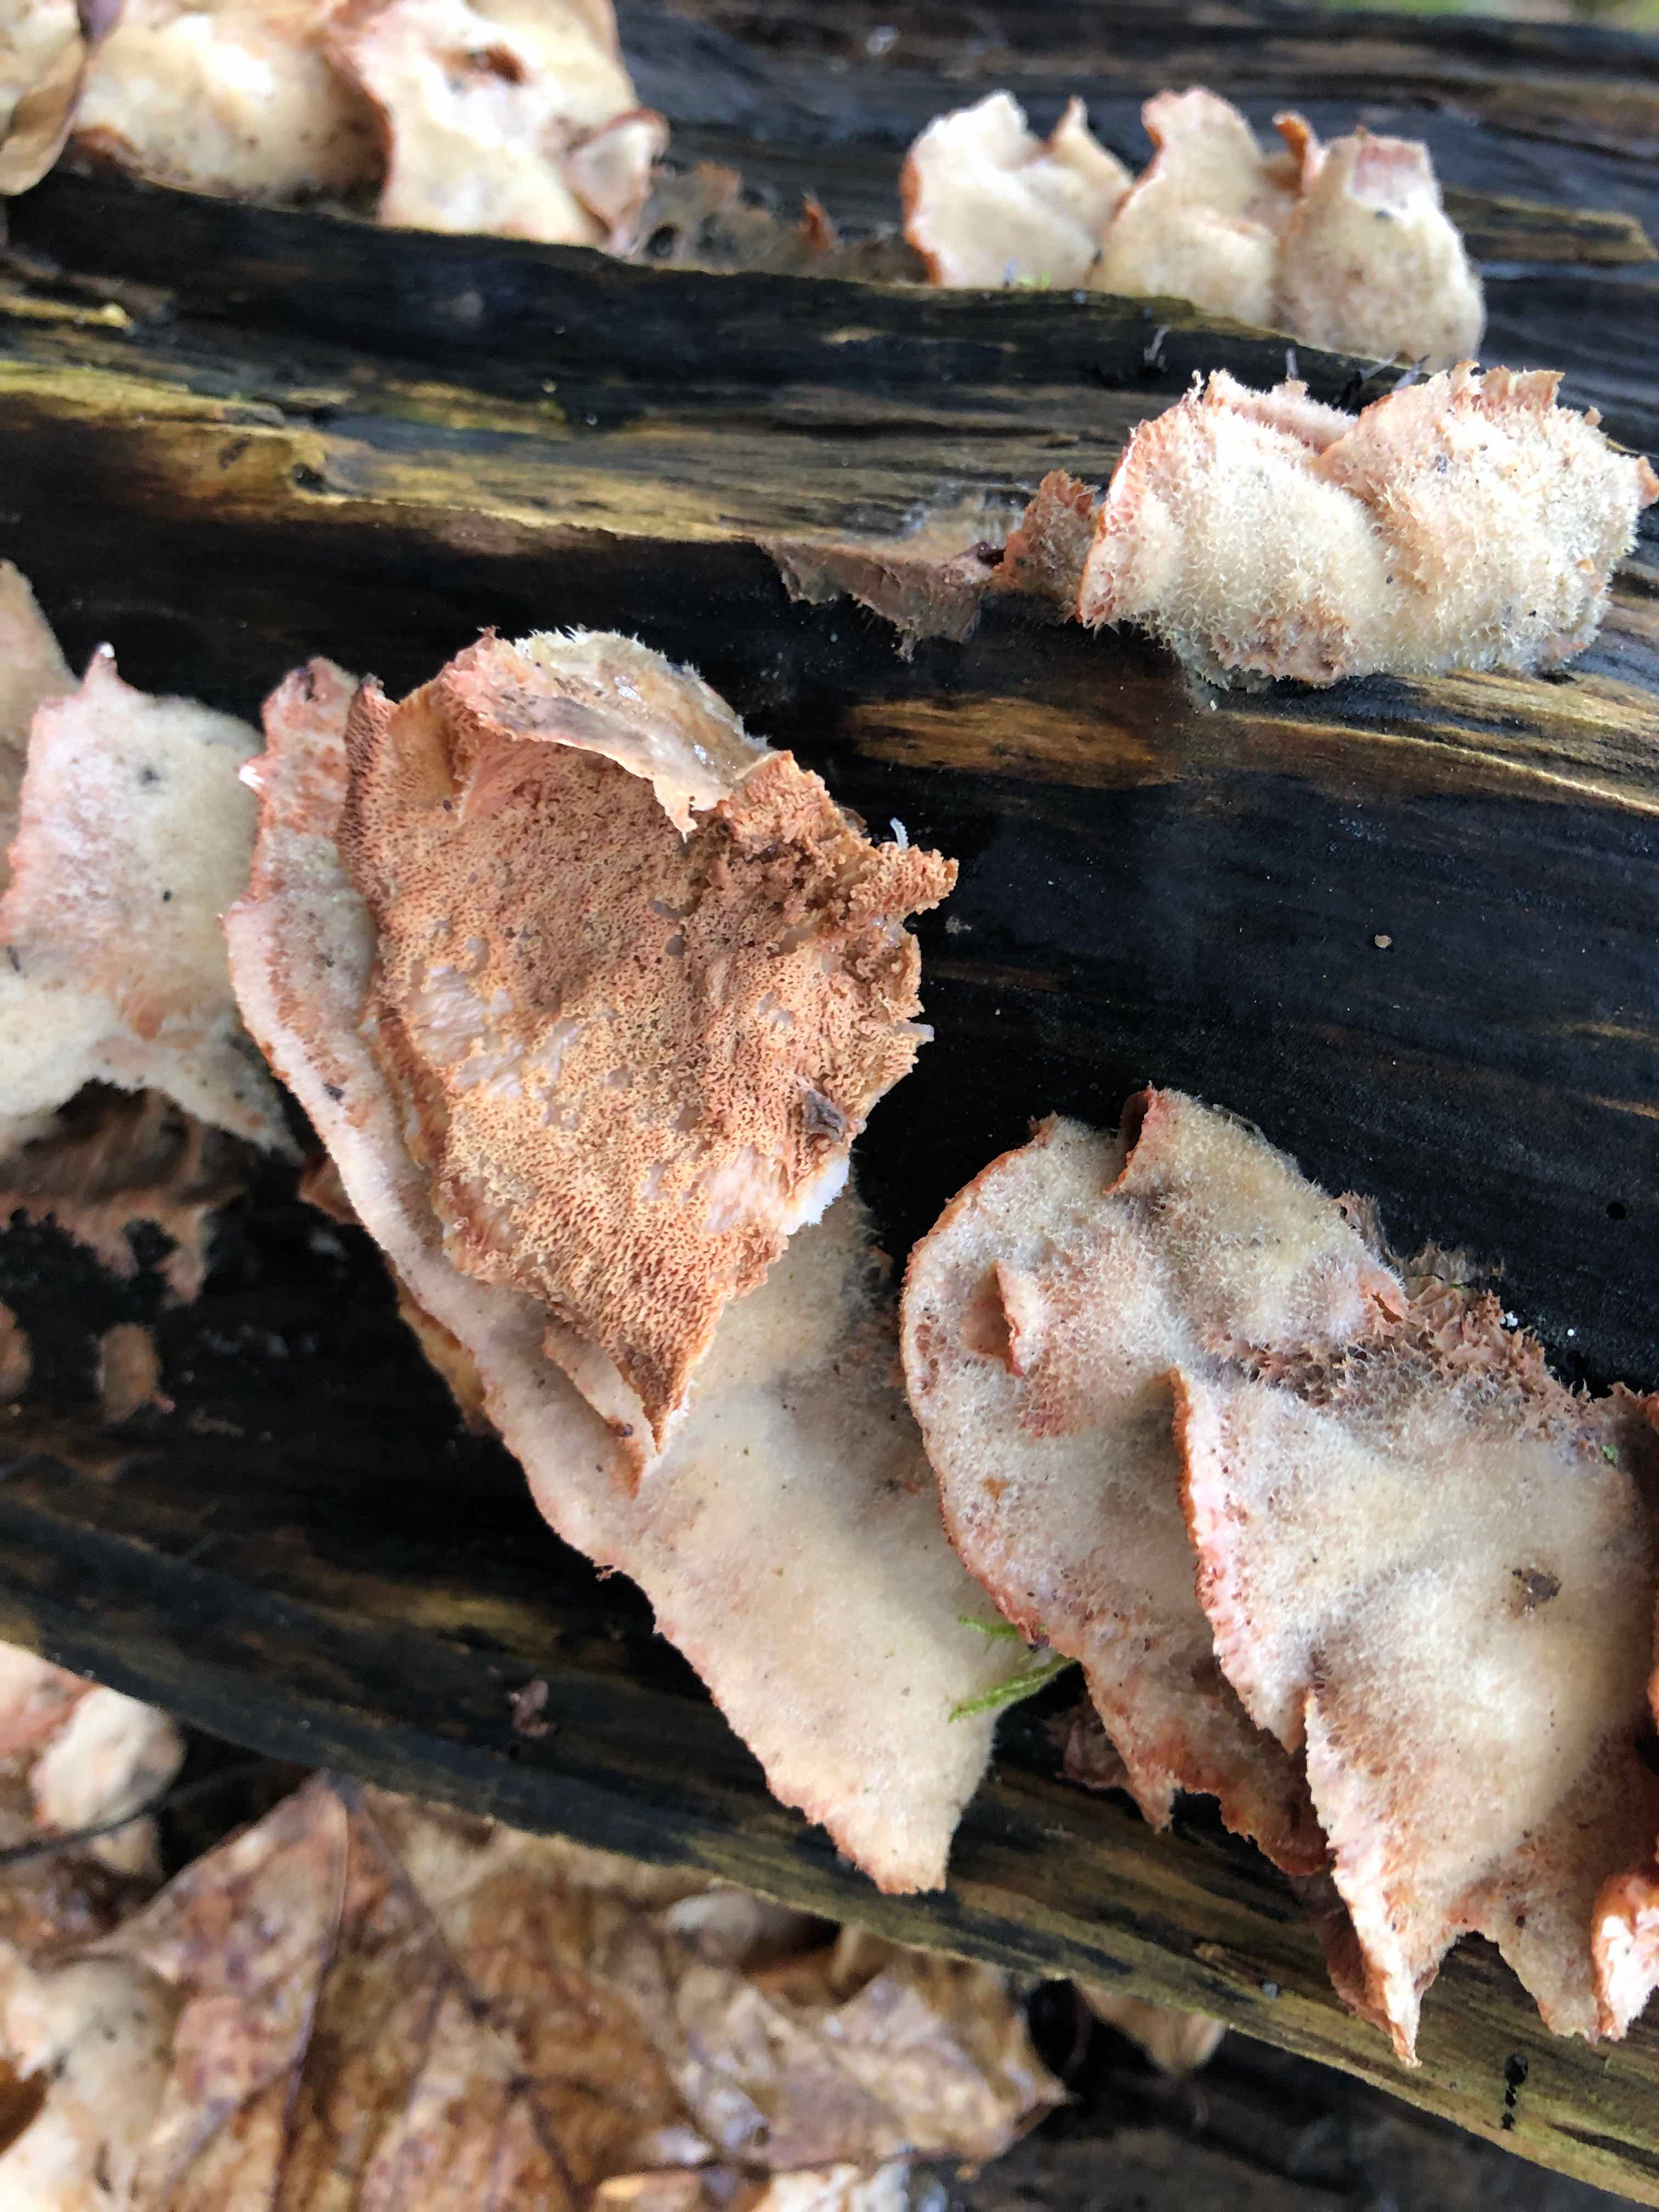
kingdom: Fungi
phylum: Basidiomycota
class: Agaricomycetes
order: Polyporales
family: Meruliaceae
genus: Phlebia
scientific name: Phlebia tremellosa
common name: bævrende åresvamp
